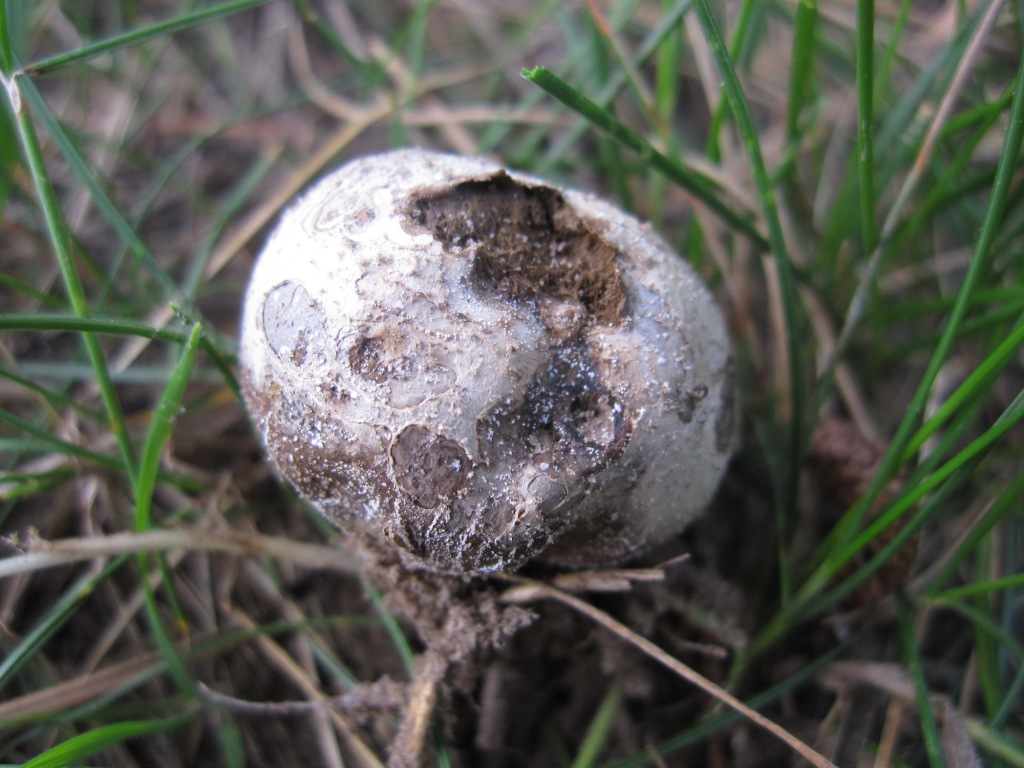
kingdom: Fungi
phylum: Basidiomycota
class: Agaricomycetes
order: Agaricales
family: Lycoperdaceae
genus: Bovista
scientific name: Bovista plumbea
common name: blygrå bovist
